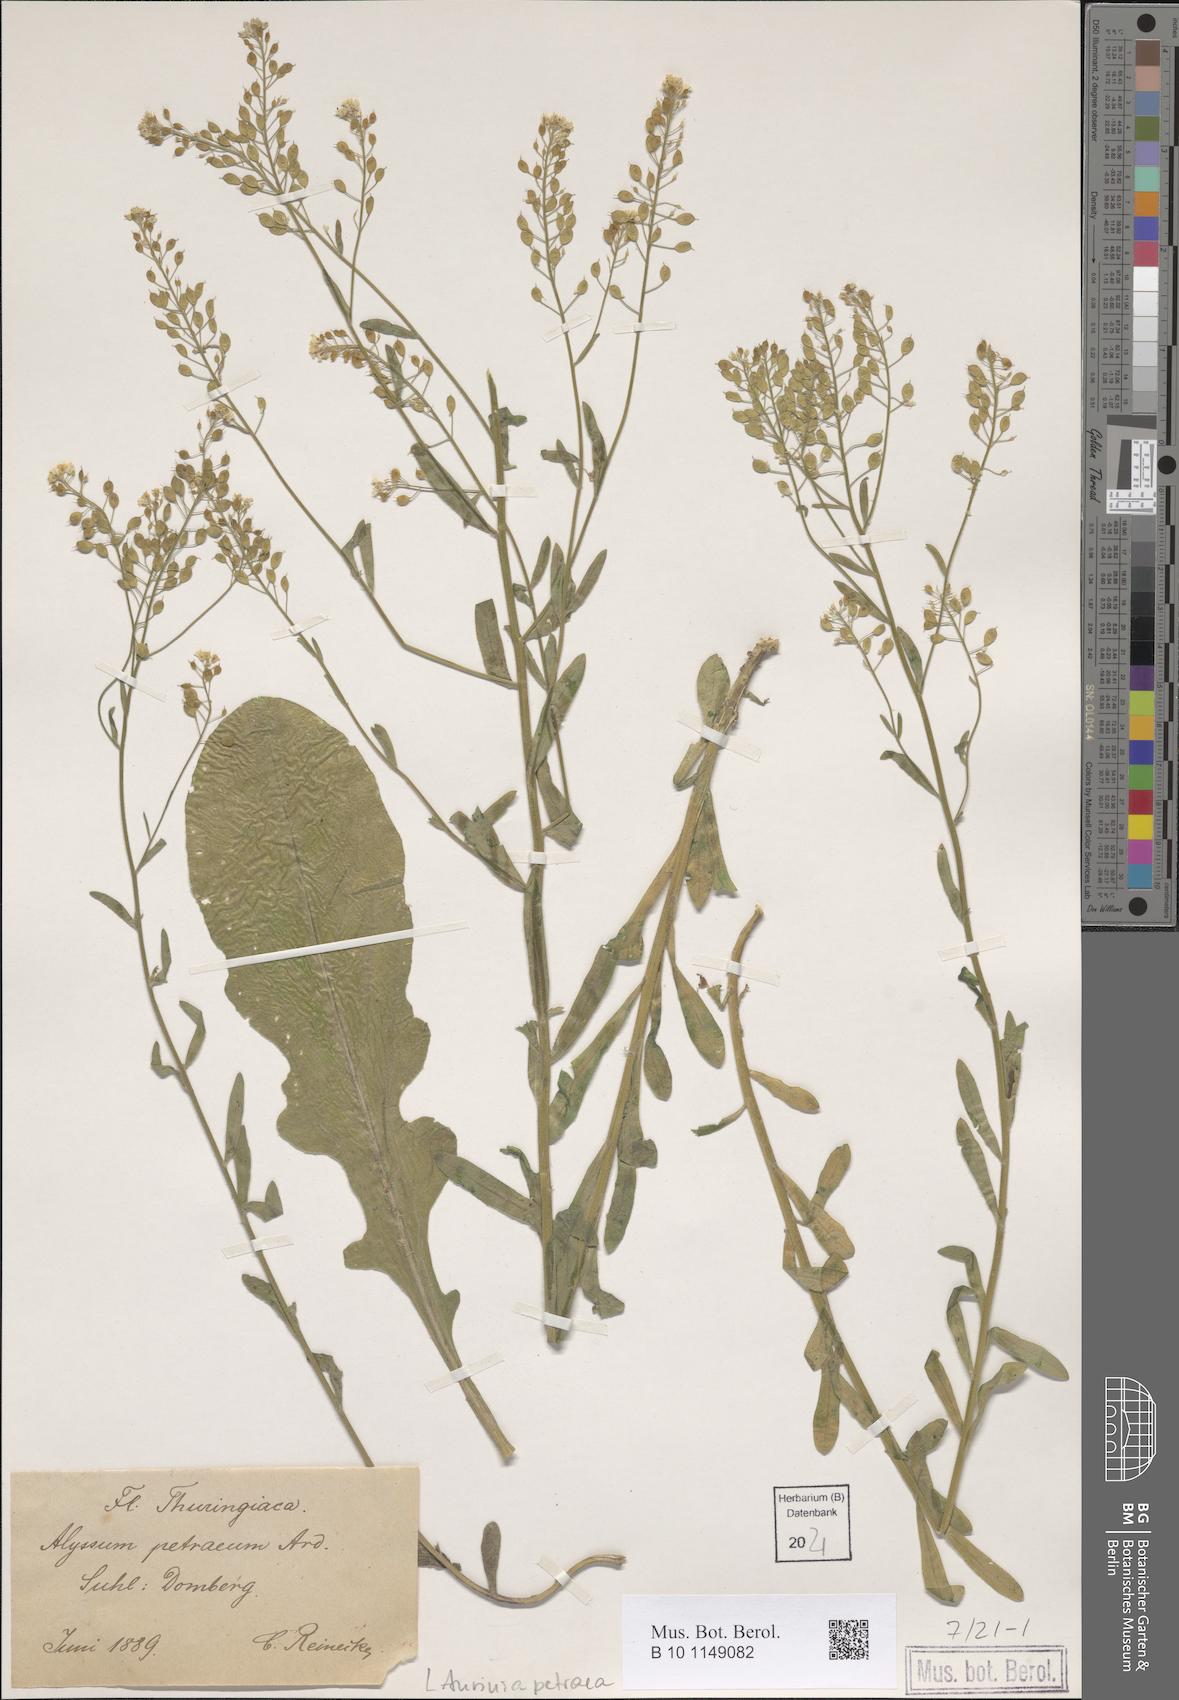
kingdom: Plantae
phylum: Tracheophyta
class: Magnoliopsida
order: Brassicales
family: Brassicaceae
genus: Aurinia
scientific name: Aurinia petraea
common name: Goldentuft
